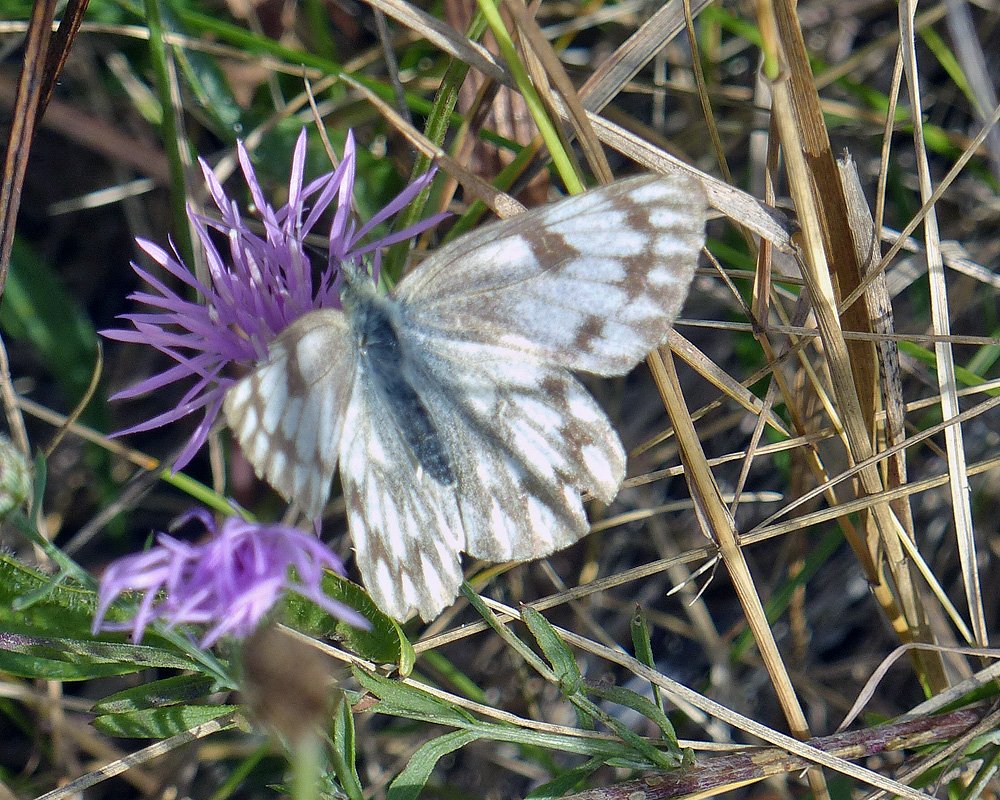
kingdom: Animalia
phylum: Arthropoda
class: Insecta
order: Lepidoptera
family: Pieridae
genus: Pontia
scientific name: Pontia occidentalis
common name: Western White
